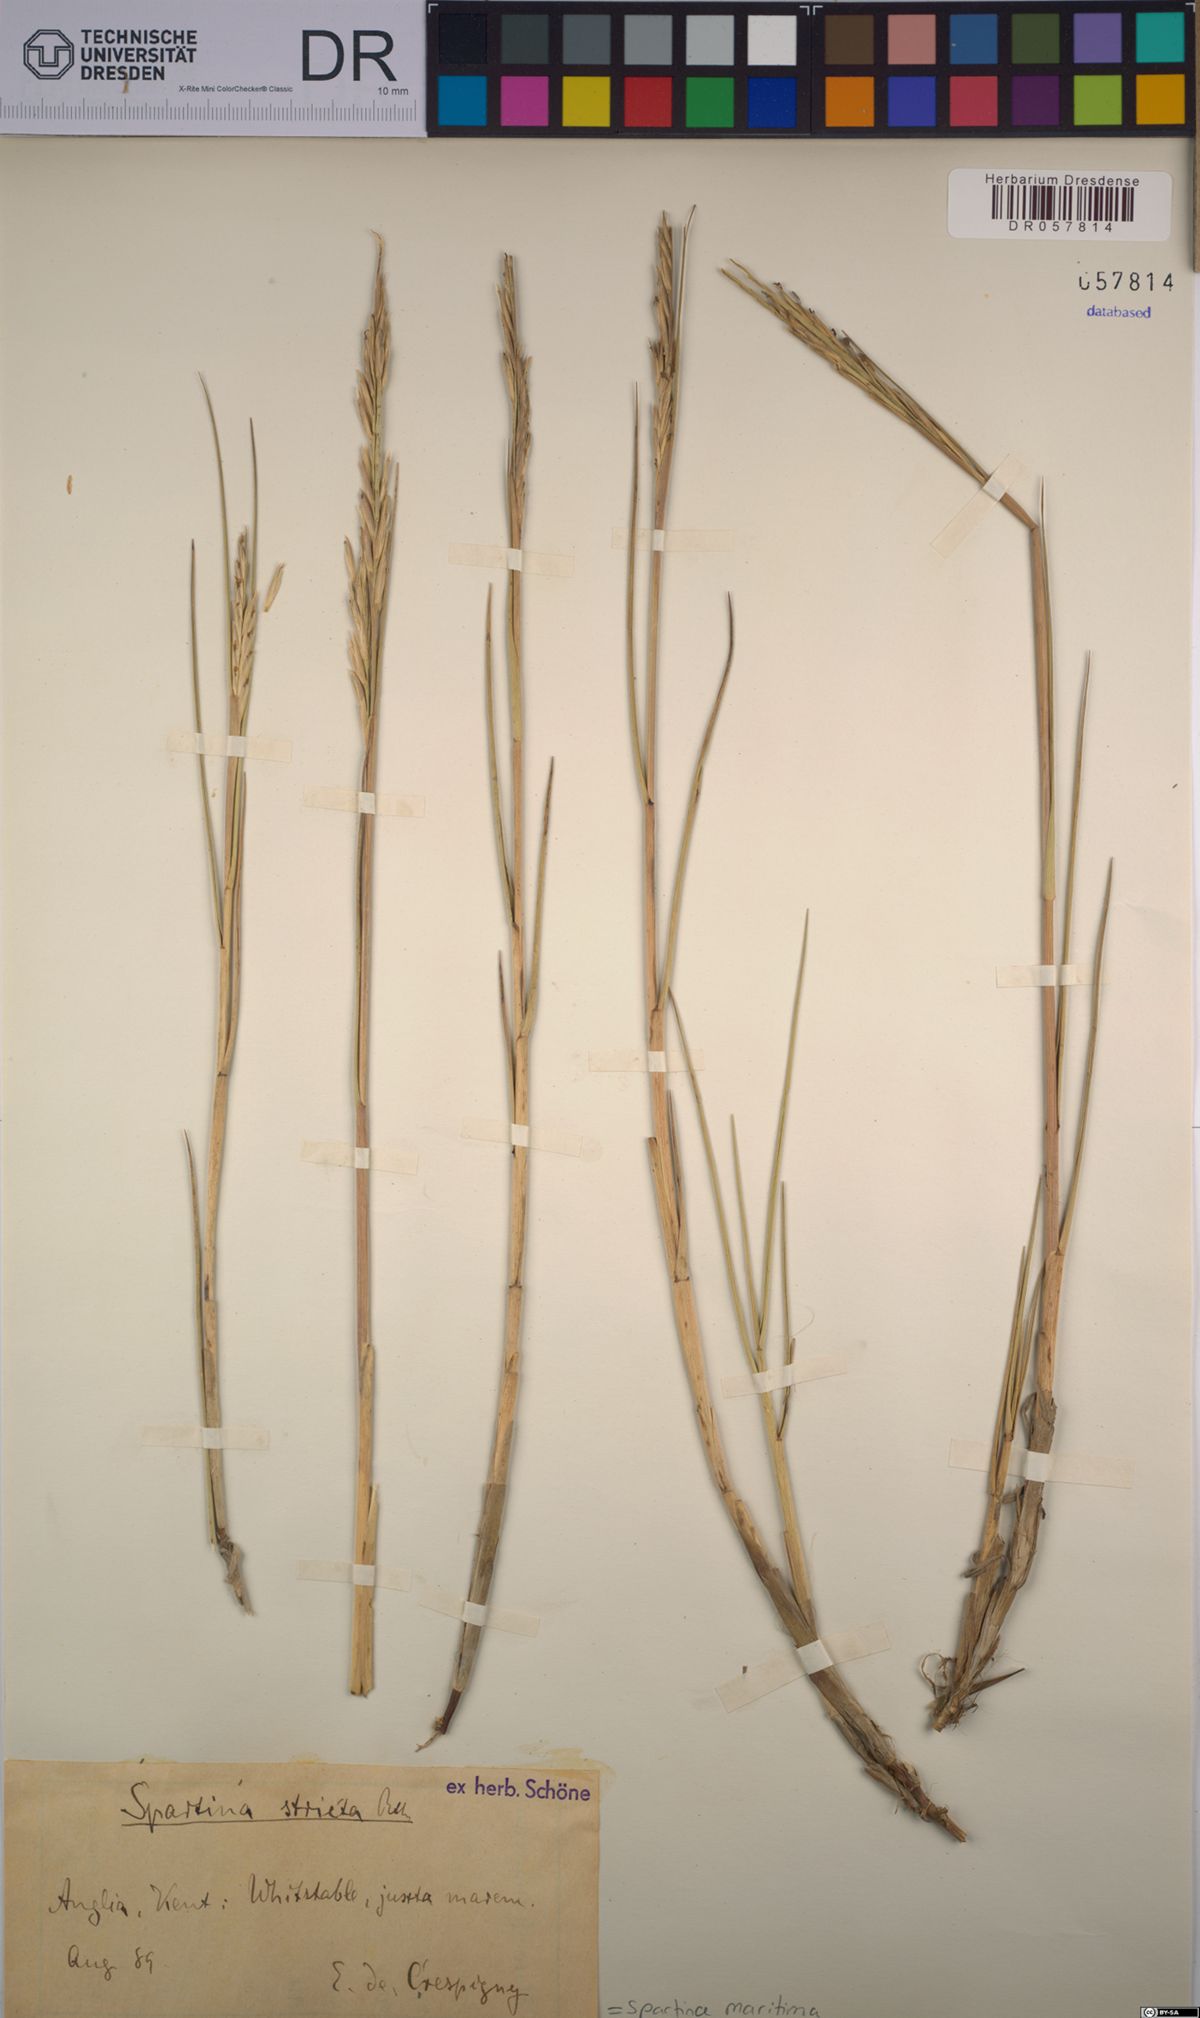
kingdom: Plantae
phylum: Tracheophyta
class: Liliopsida
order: Poales
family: Poaceae
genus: Sporobolus
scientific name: Sporobolus maritimus
